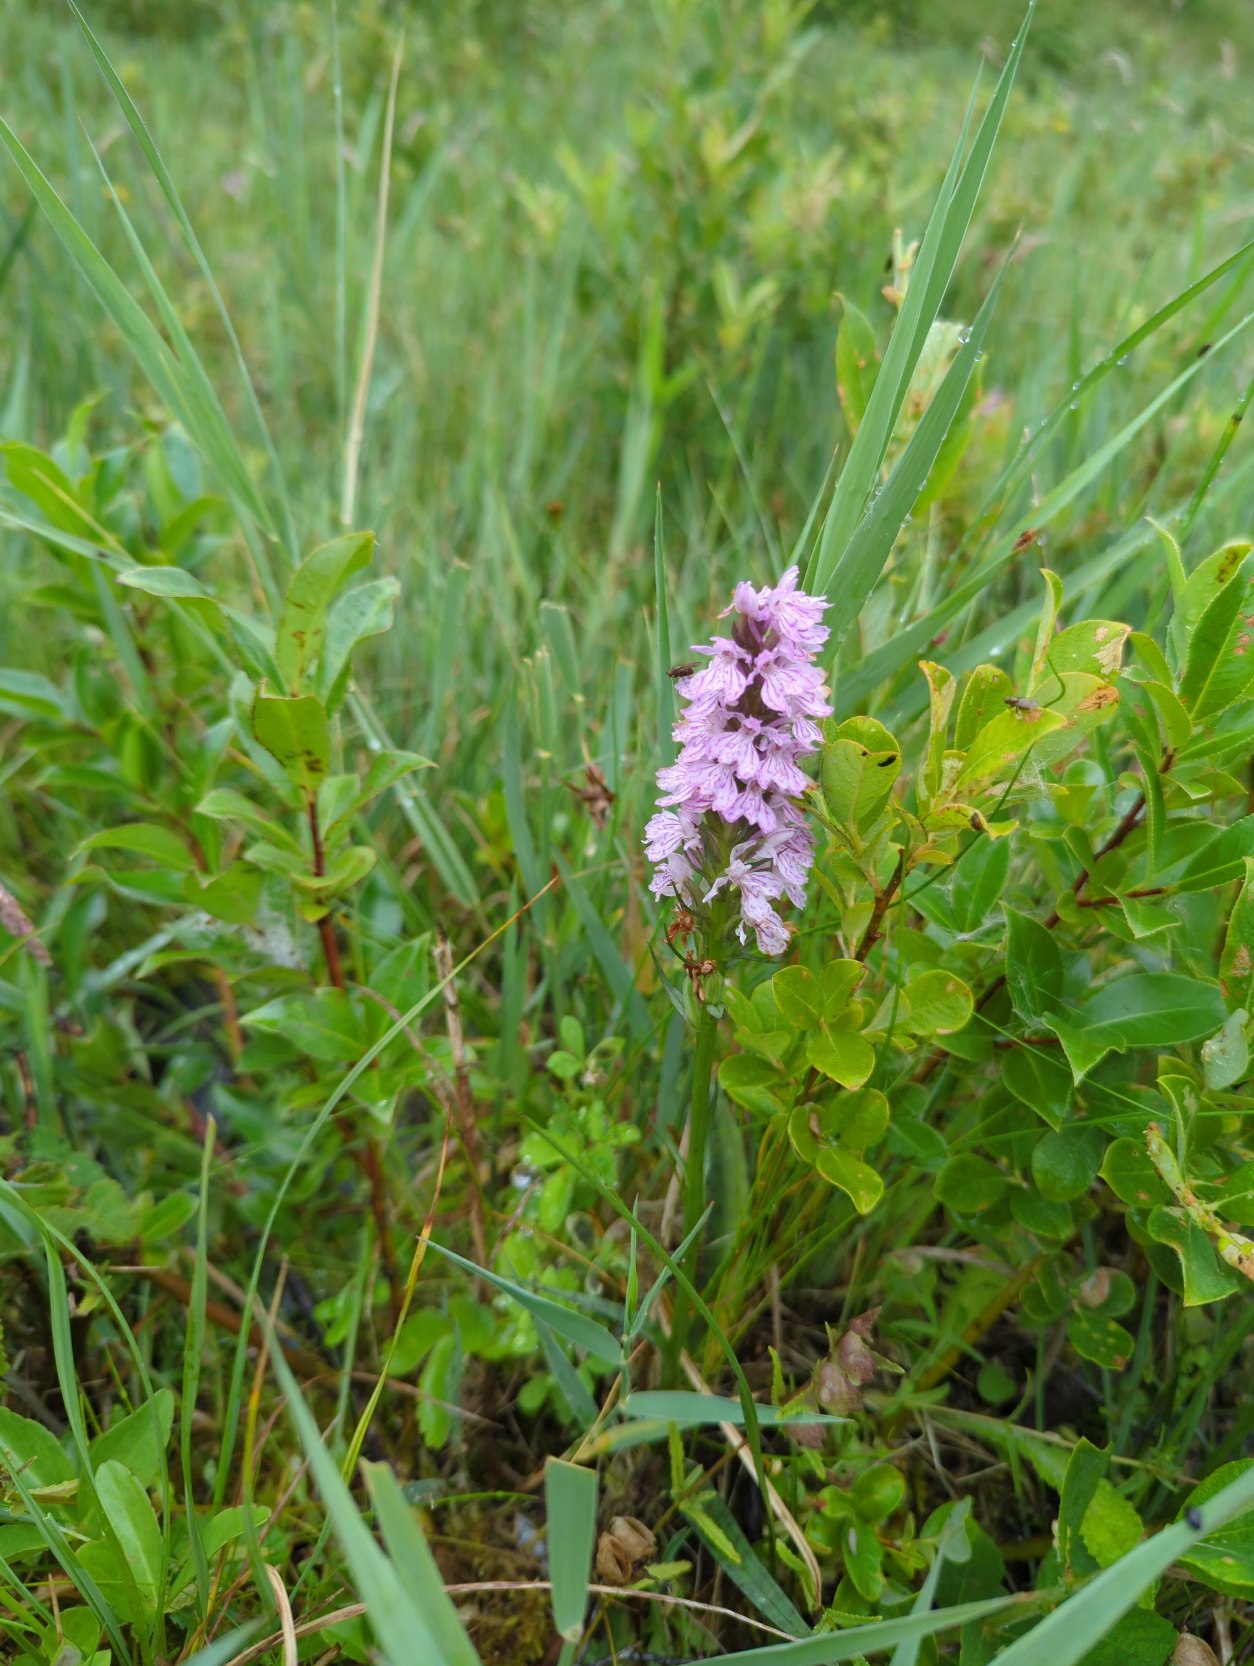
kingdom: Plantae
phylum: Tracheophyta
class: Liliopsida
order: Asparagales
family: Orchidaceae
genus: Dactylorhiza
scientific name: Dactylorhiza maculata
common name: Plettet gøgeurt
